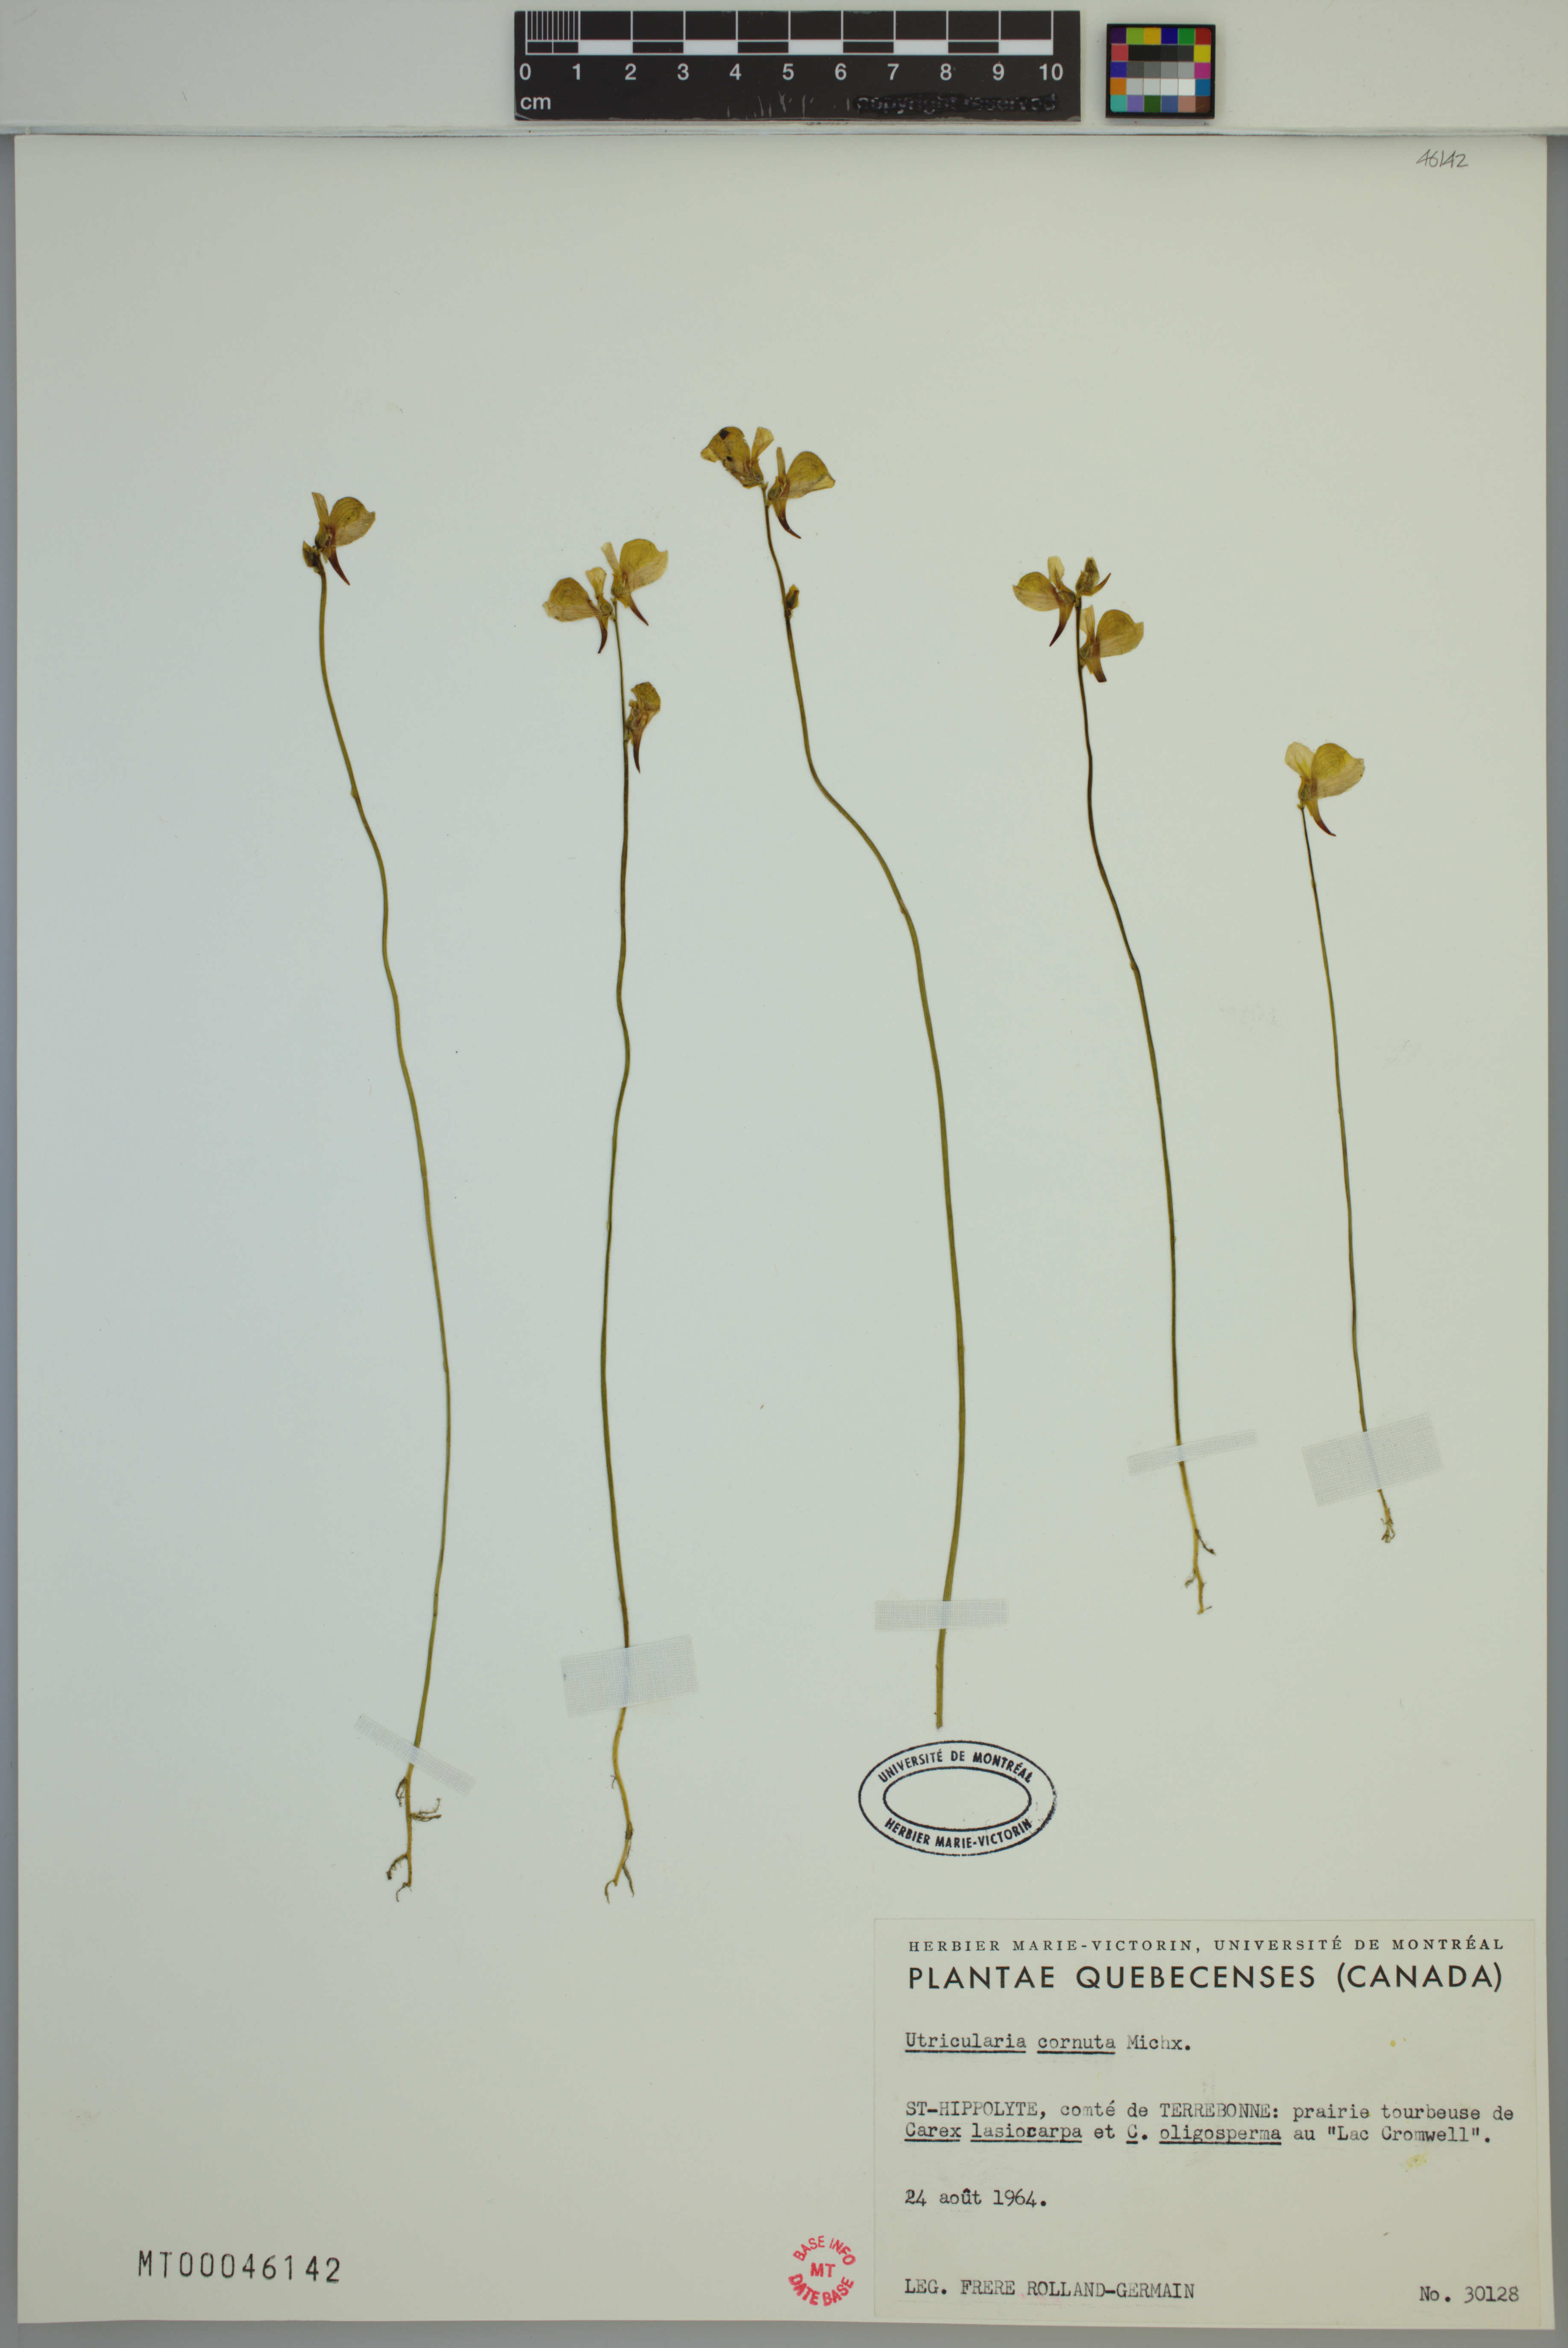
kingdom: Plantae
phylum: Tracheophyta
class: Magnoliopsida
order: Lamiales
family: Lentibulariaceae
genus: Utricularia
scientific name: Utricularia cornuta
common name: Horned bladderwort
